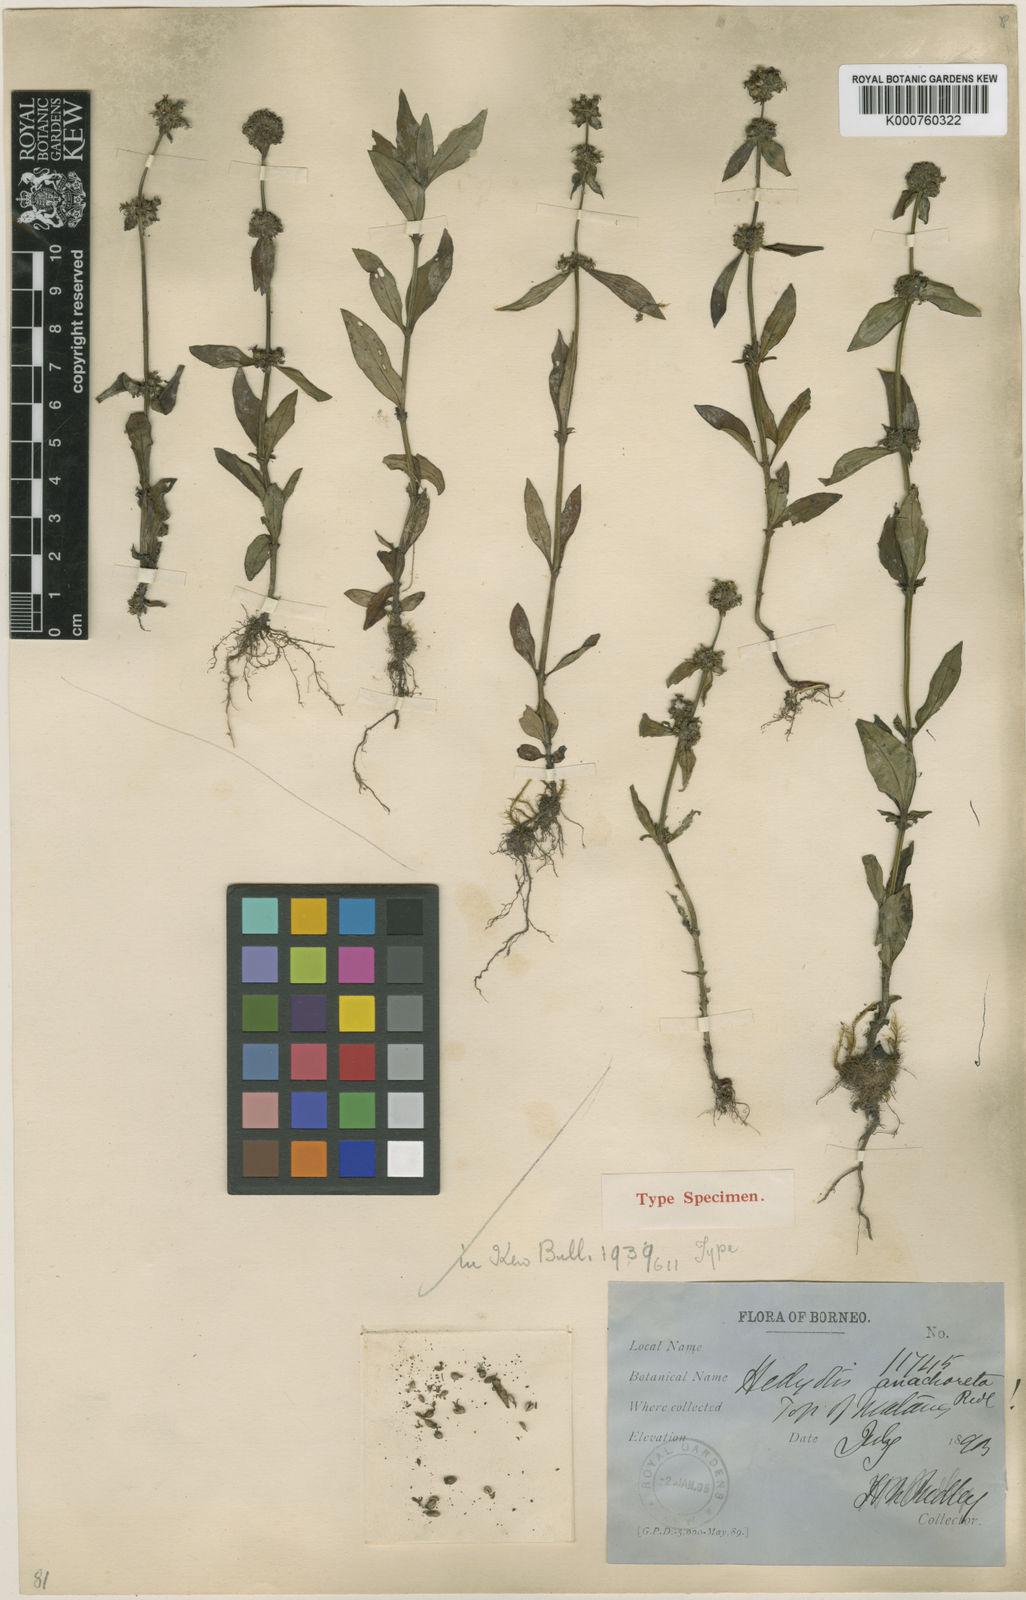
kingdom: Plantae
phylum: Tracheophyta
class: Magnoliopsida
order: Gentianales
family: Rubiaceae
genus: Hedyotis
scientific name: Hedyotis anachoreta
